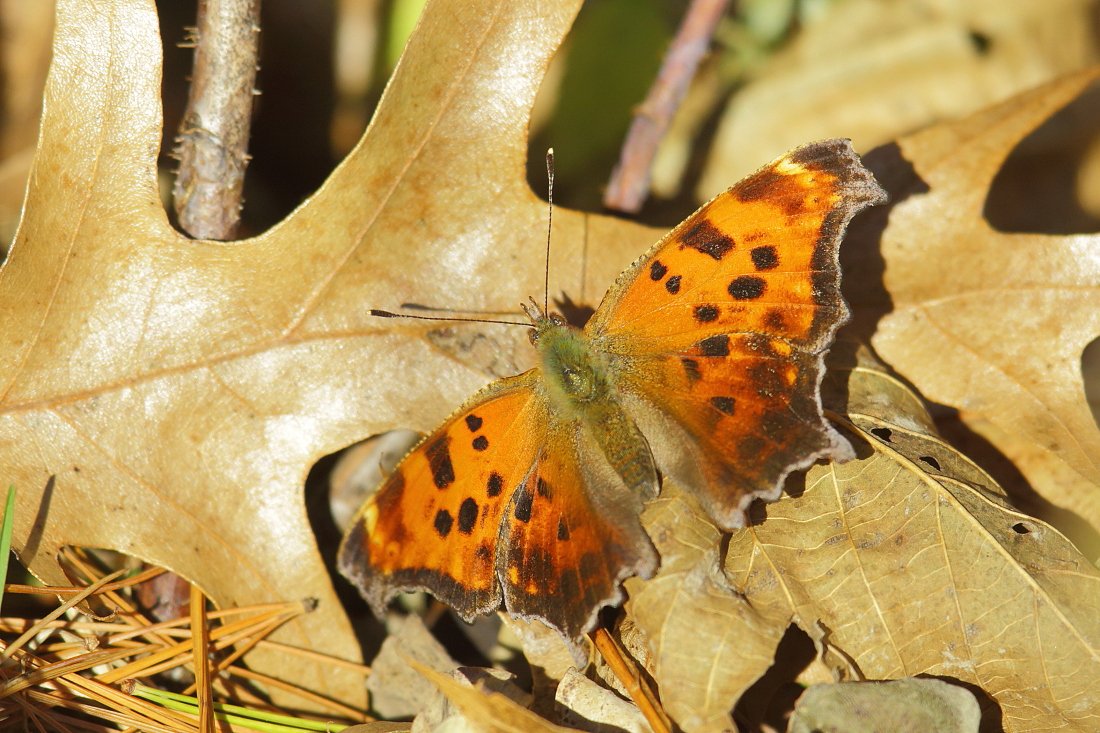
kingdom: Animalia
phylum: Arthropoda
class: Insecta
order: Lepidoptera
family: Nymphalidae
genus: Polygonia
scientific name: Polygonia comma
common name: Eastern Comma
